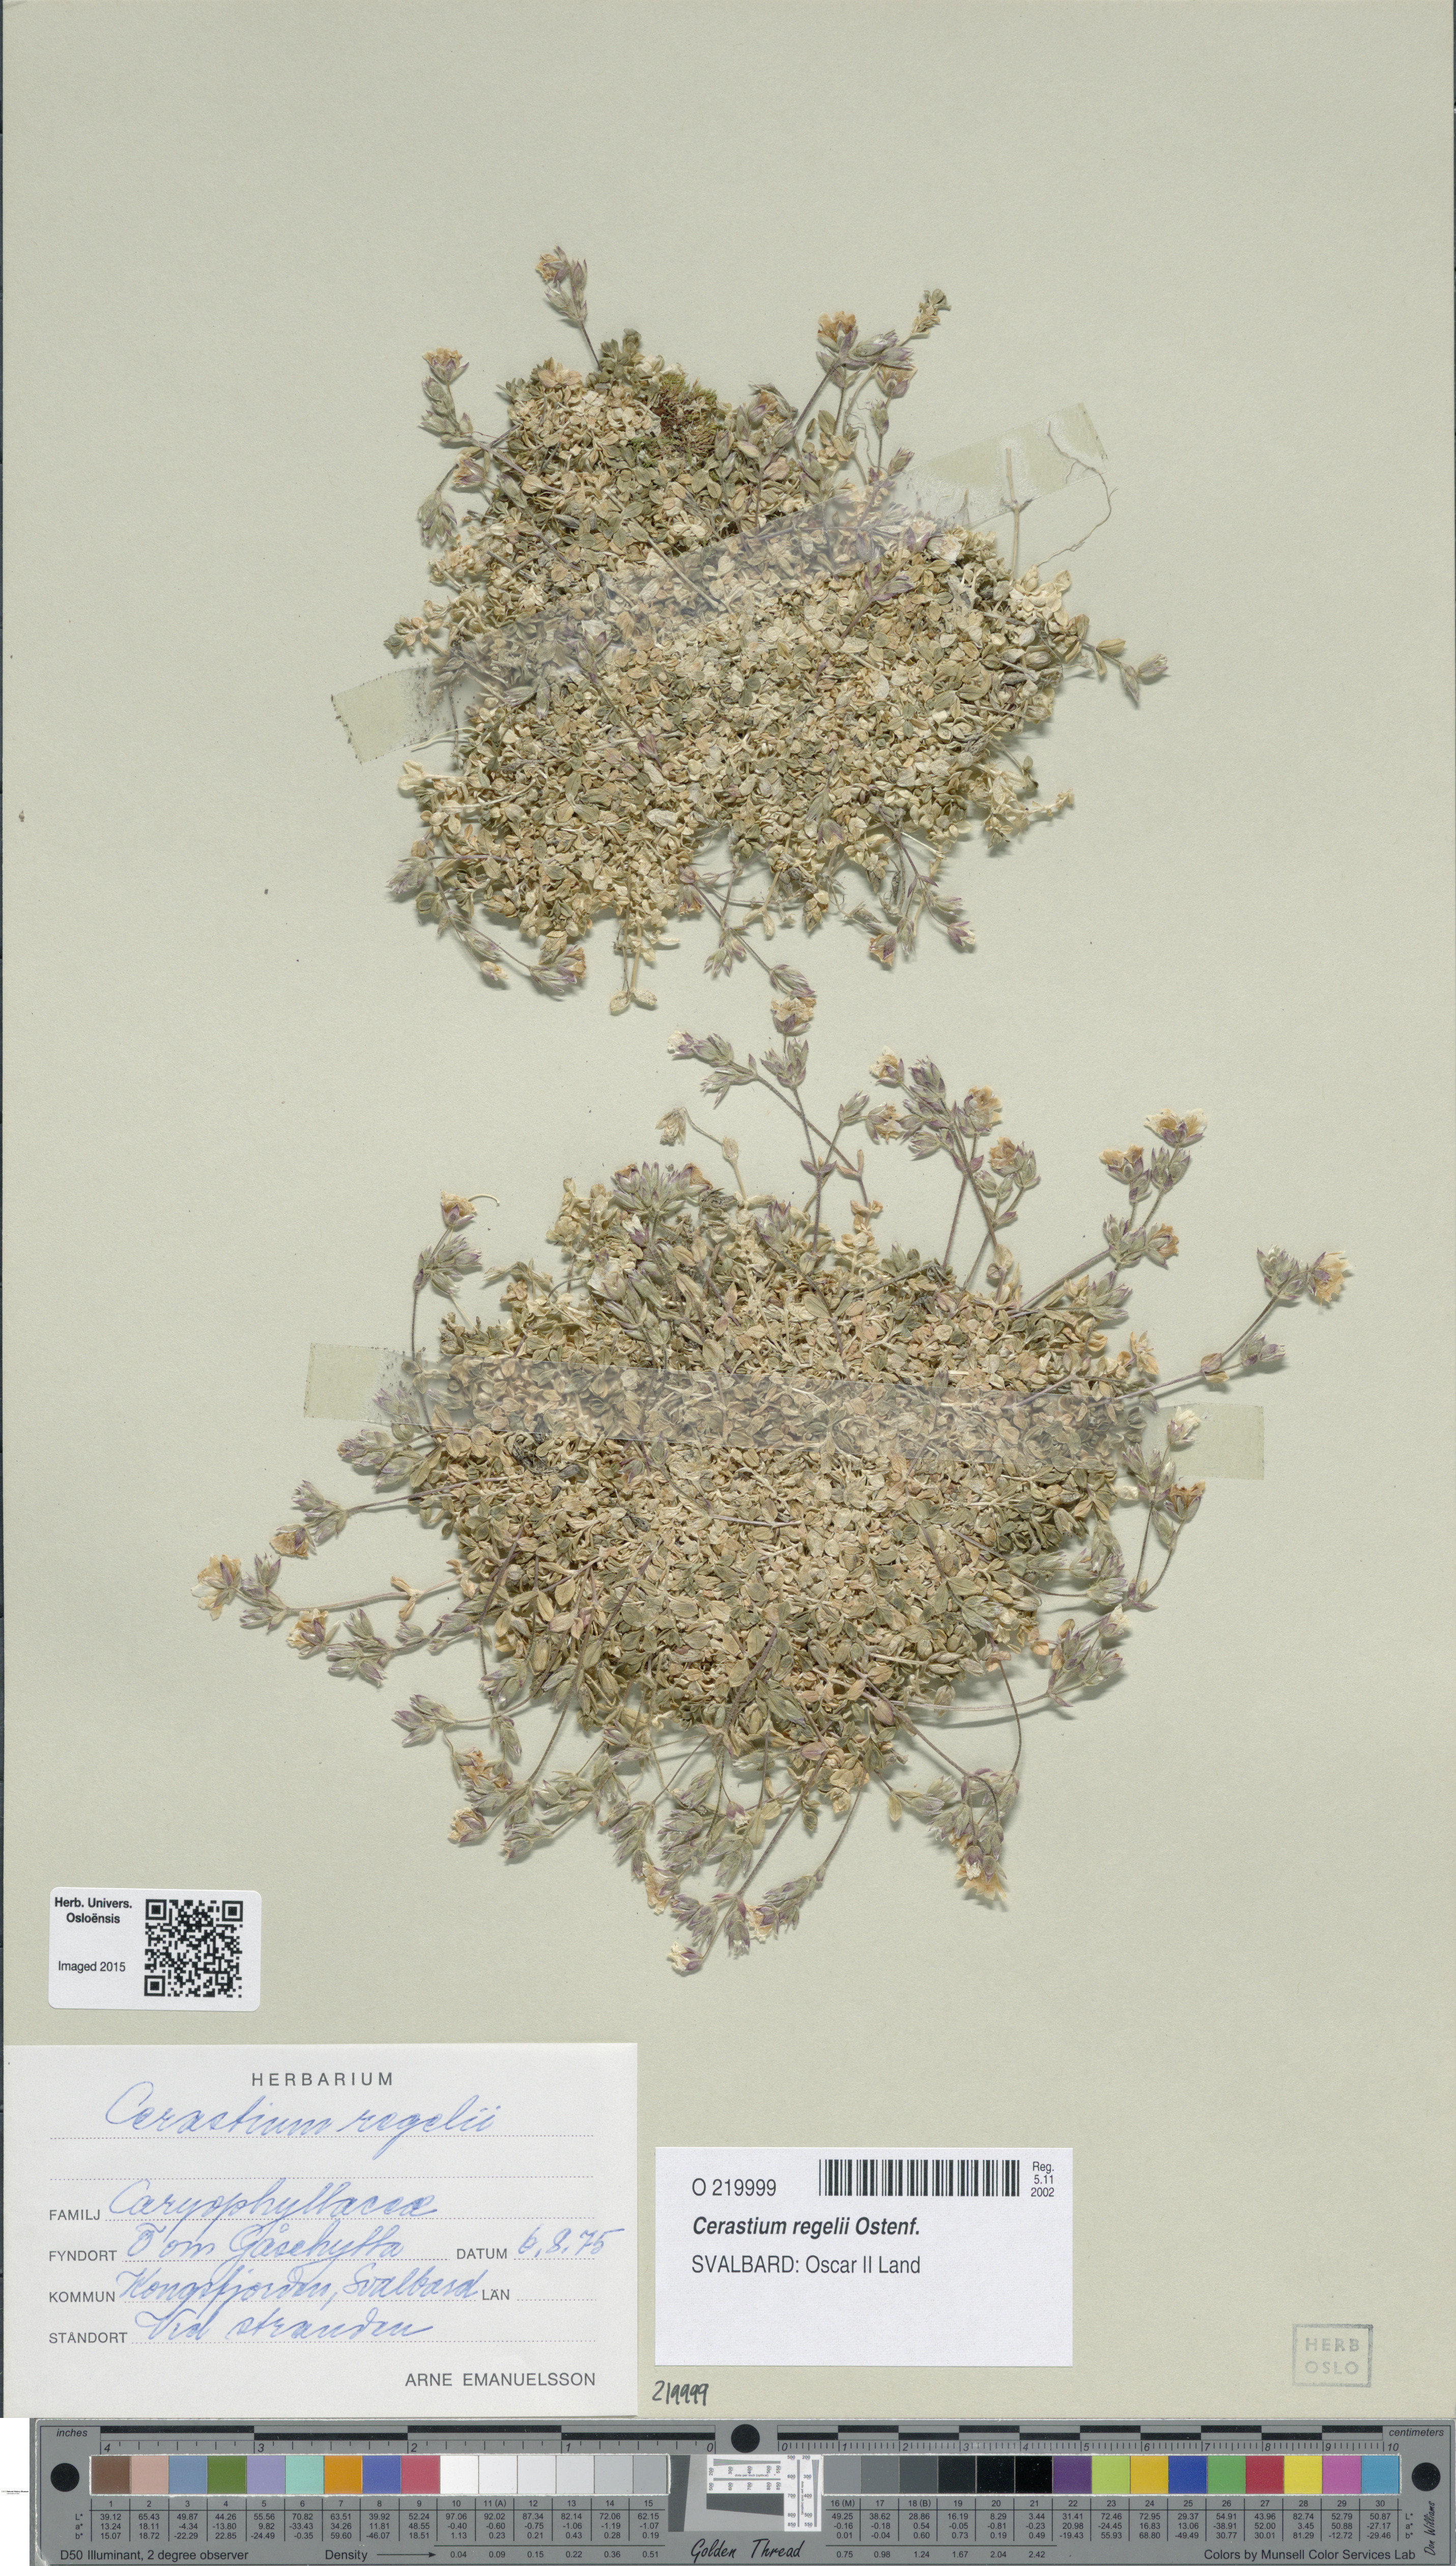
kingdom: Plantae
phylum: Tracheophyta
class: Magnoliopsida
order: Caryophyllales
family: Caryophyllaceae
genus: Cerastium
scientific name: Cerastium regelii
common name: Regel's chickweed
